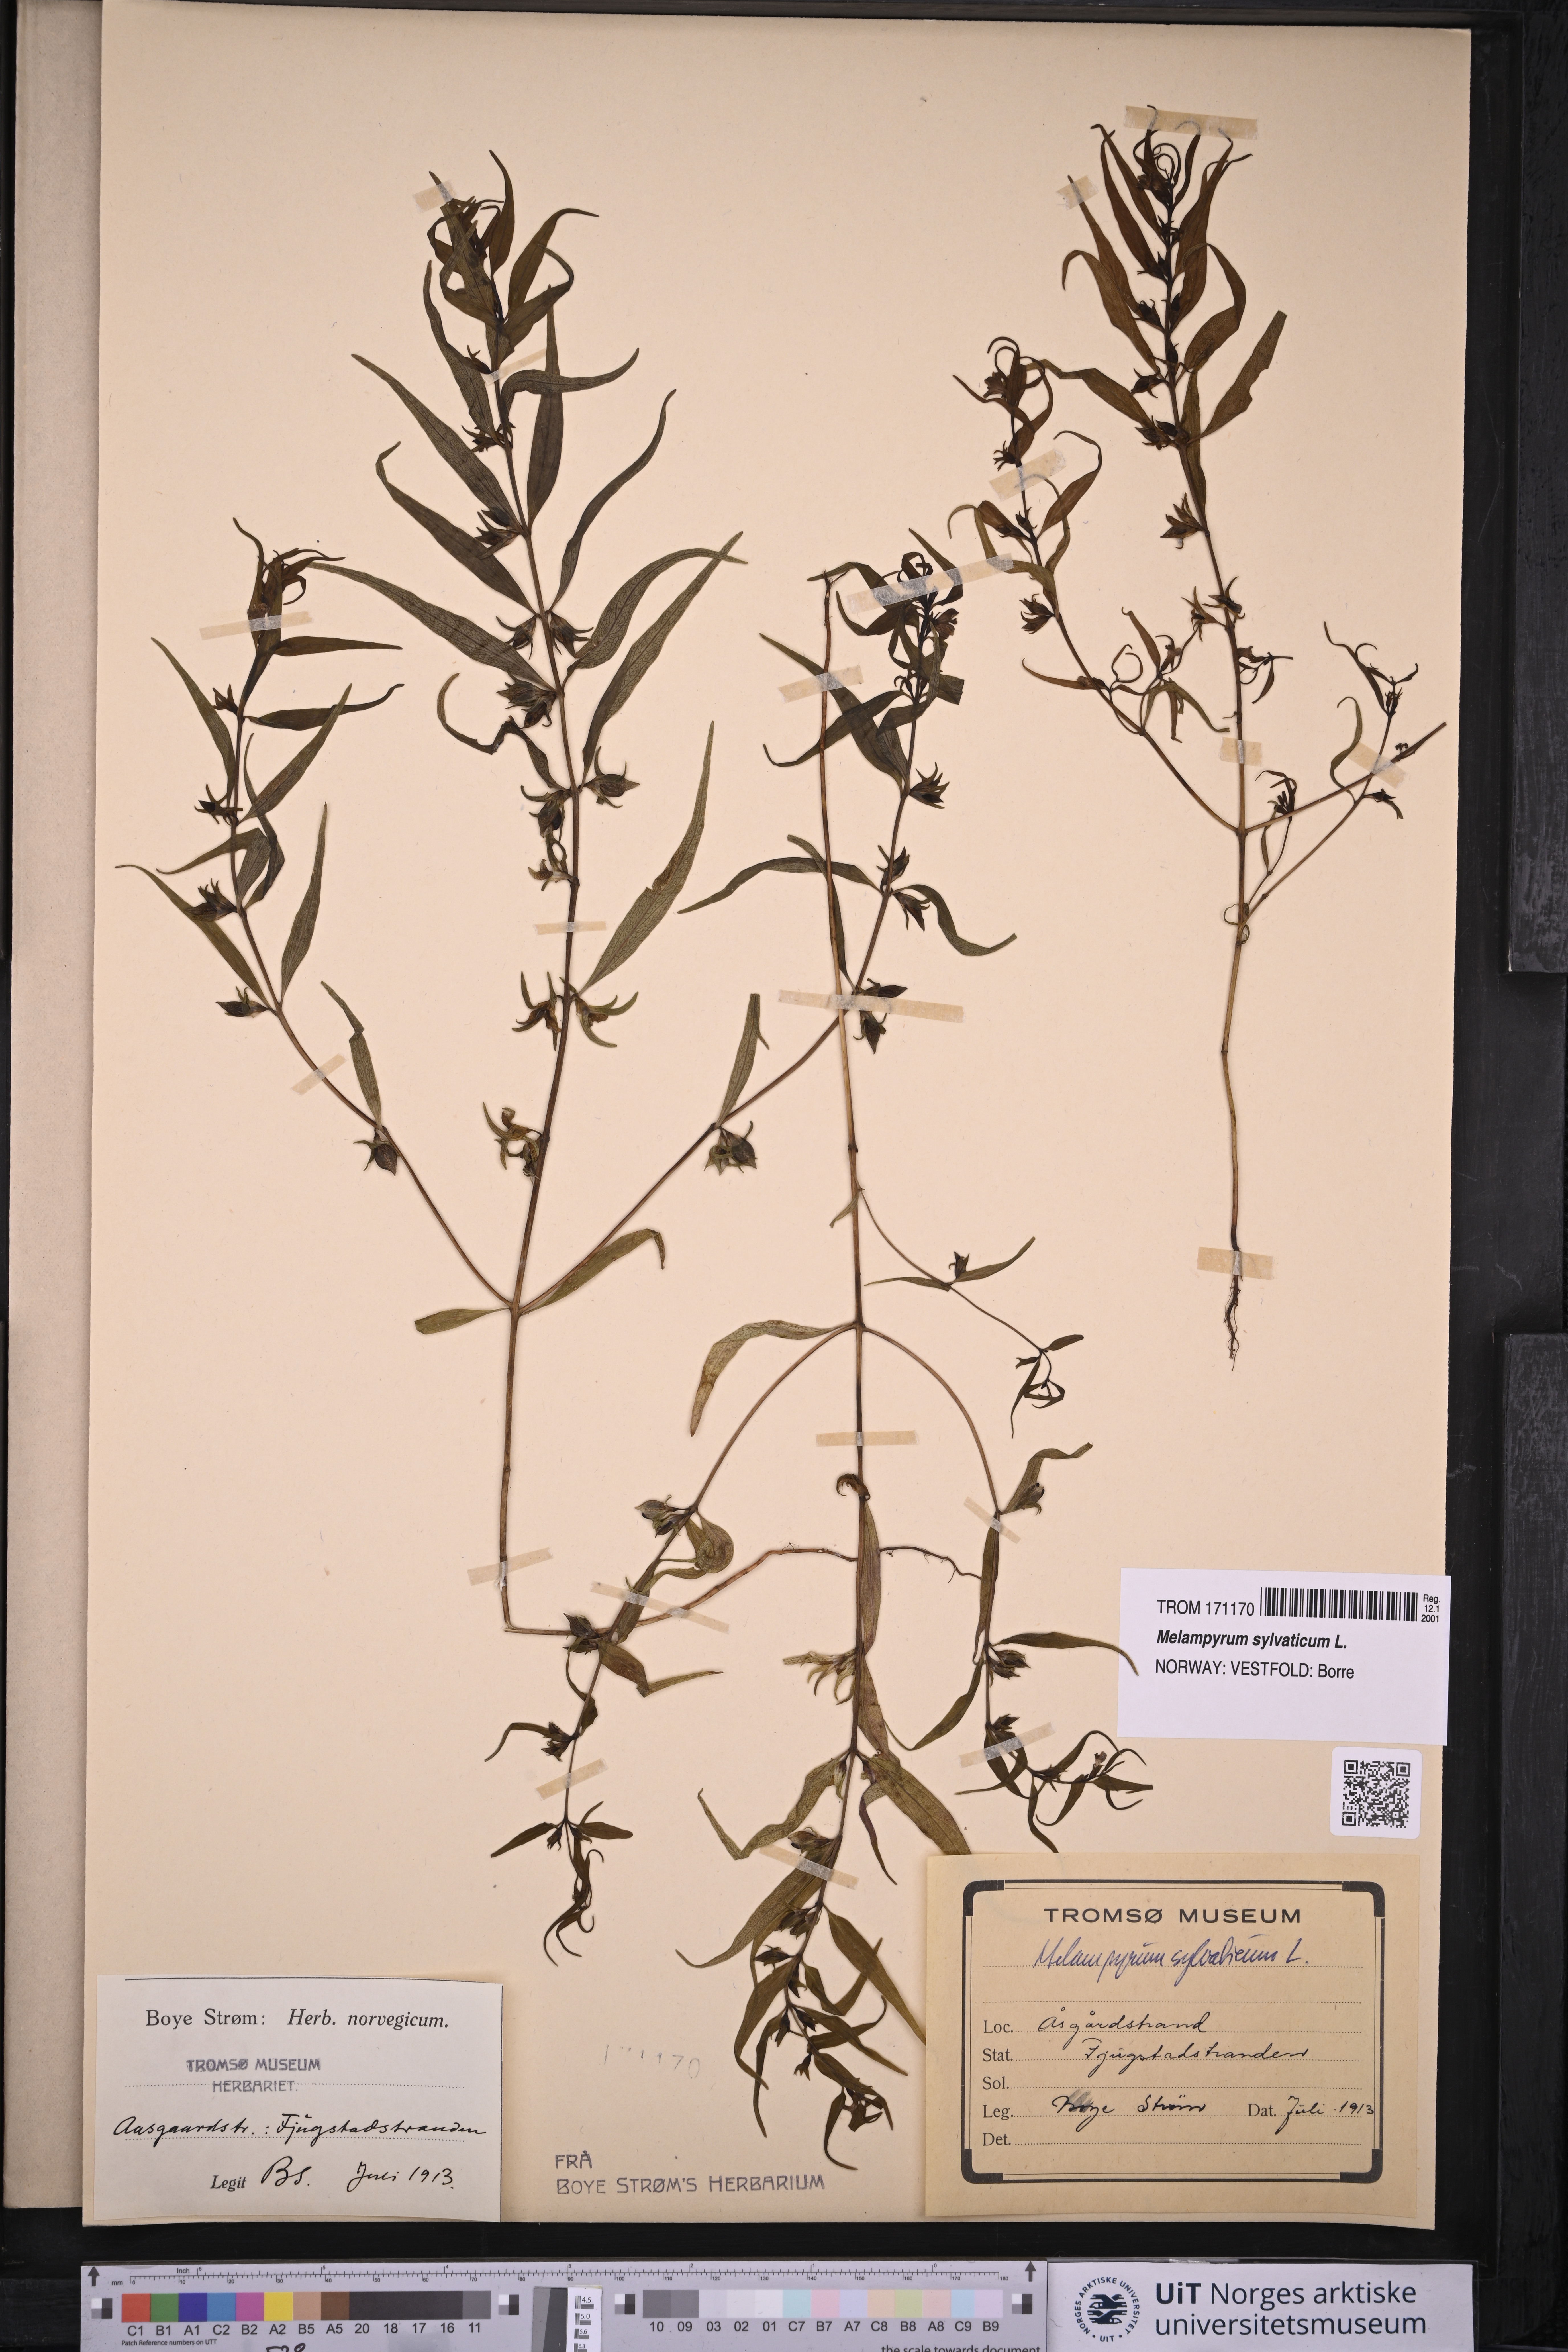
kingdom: Plantae
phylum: Tracheophyta
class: Magnoliopsida
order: Lamiales
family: Orobanchaceae
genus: Melampyrum
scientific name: Melampyrum sylvaticum
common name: Small cow-wheat
